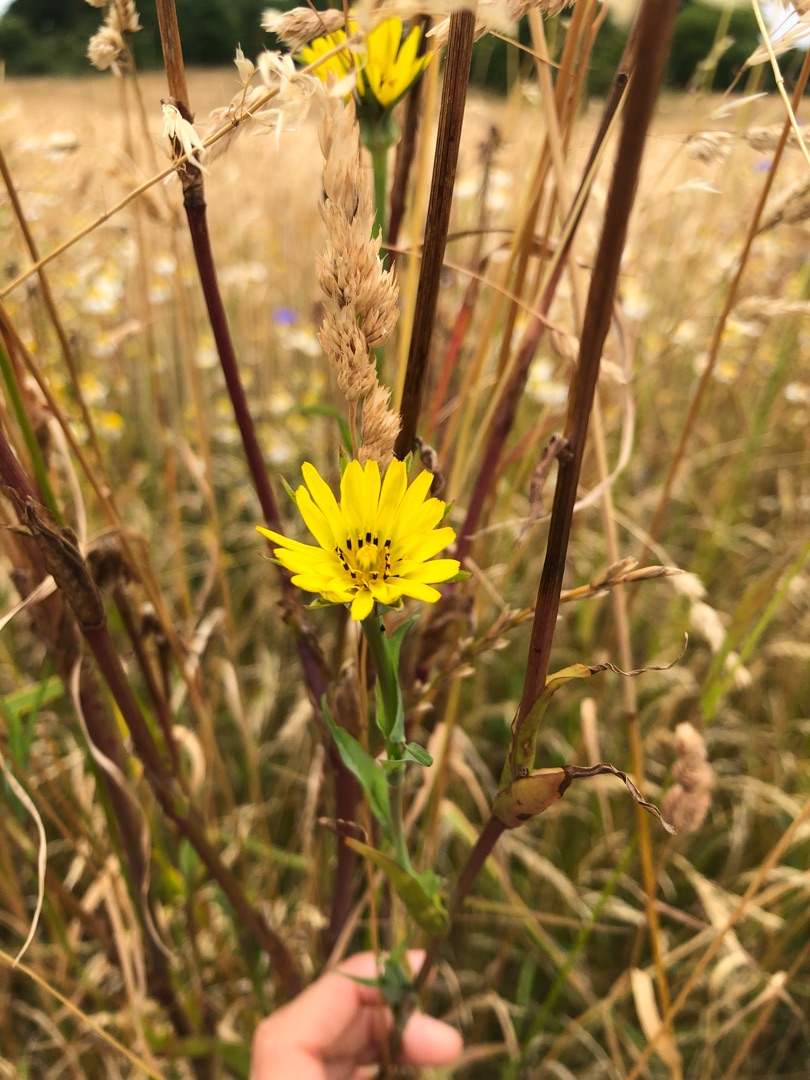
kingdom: Plantae
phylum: Tracheophyta
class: Magnoliopsida
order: Asterales
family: Asteraceae
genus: Tragopogon
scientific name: Tragopogon pratensis
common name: Eng-gedeskæg
